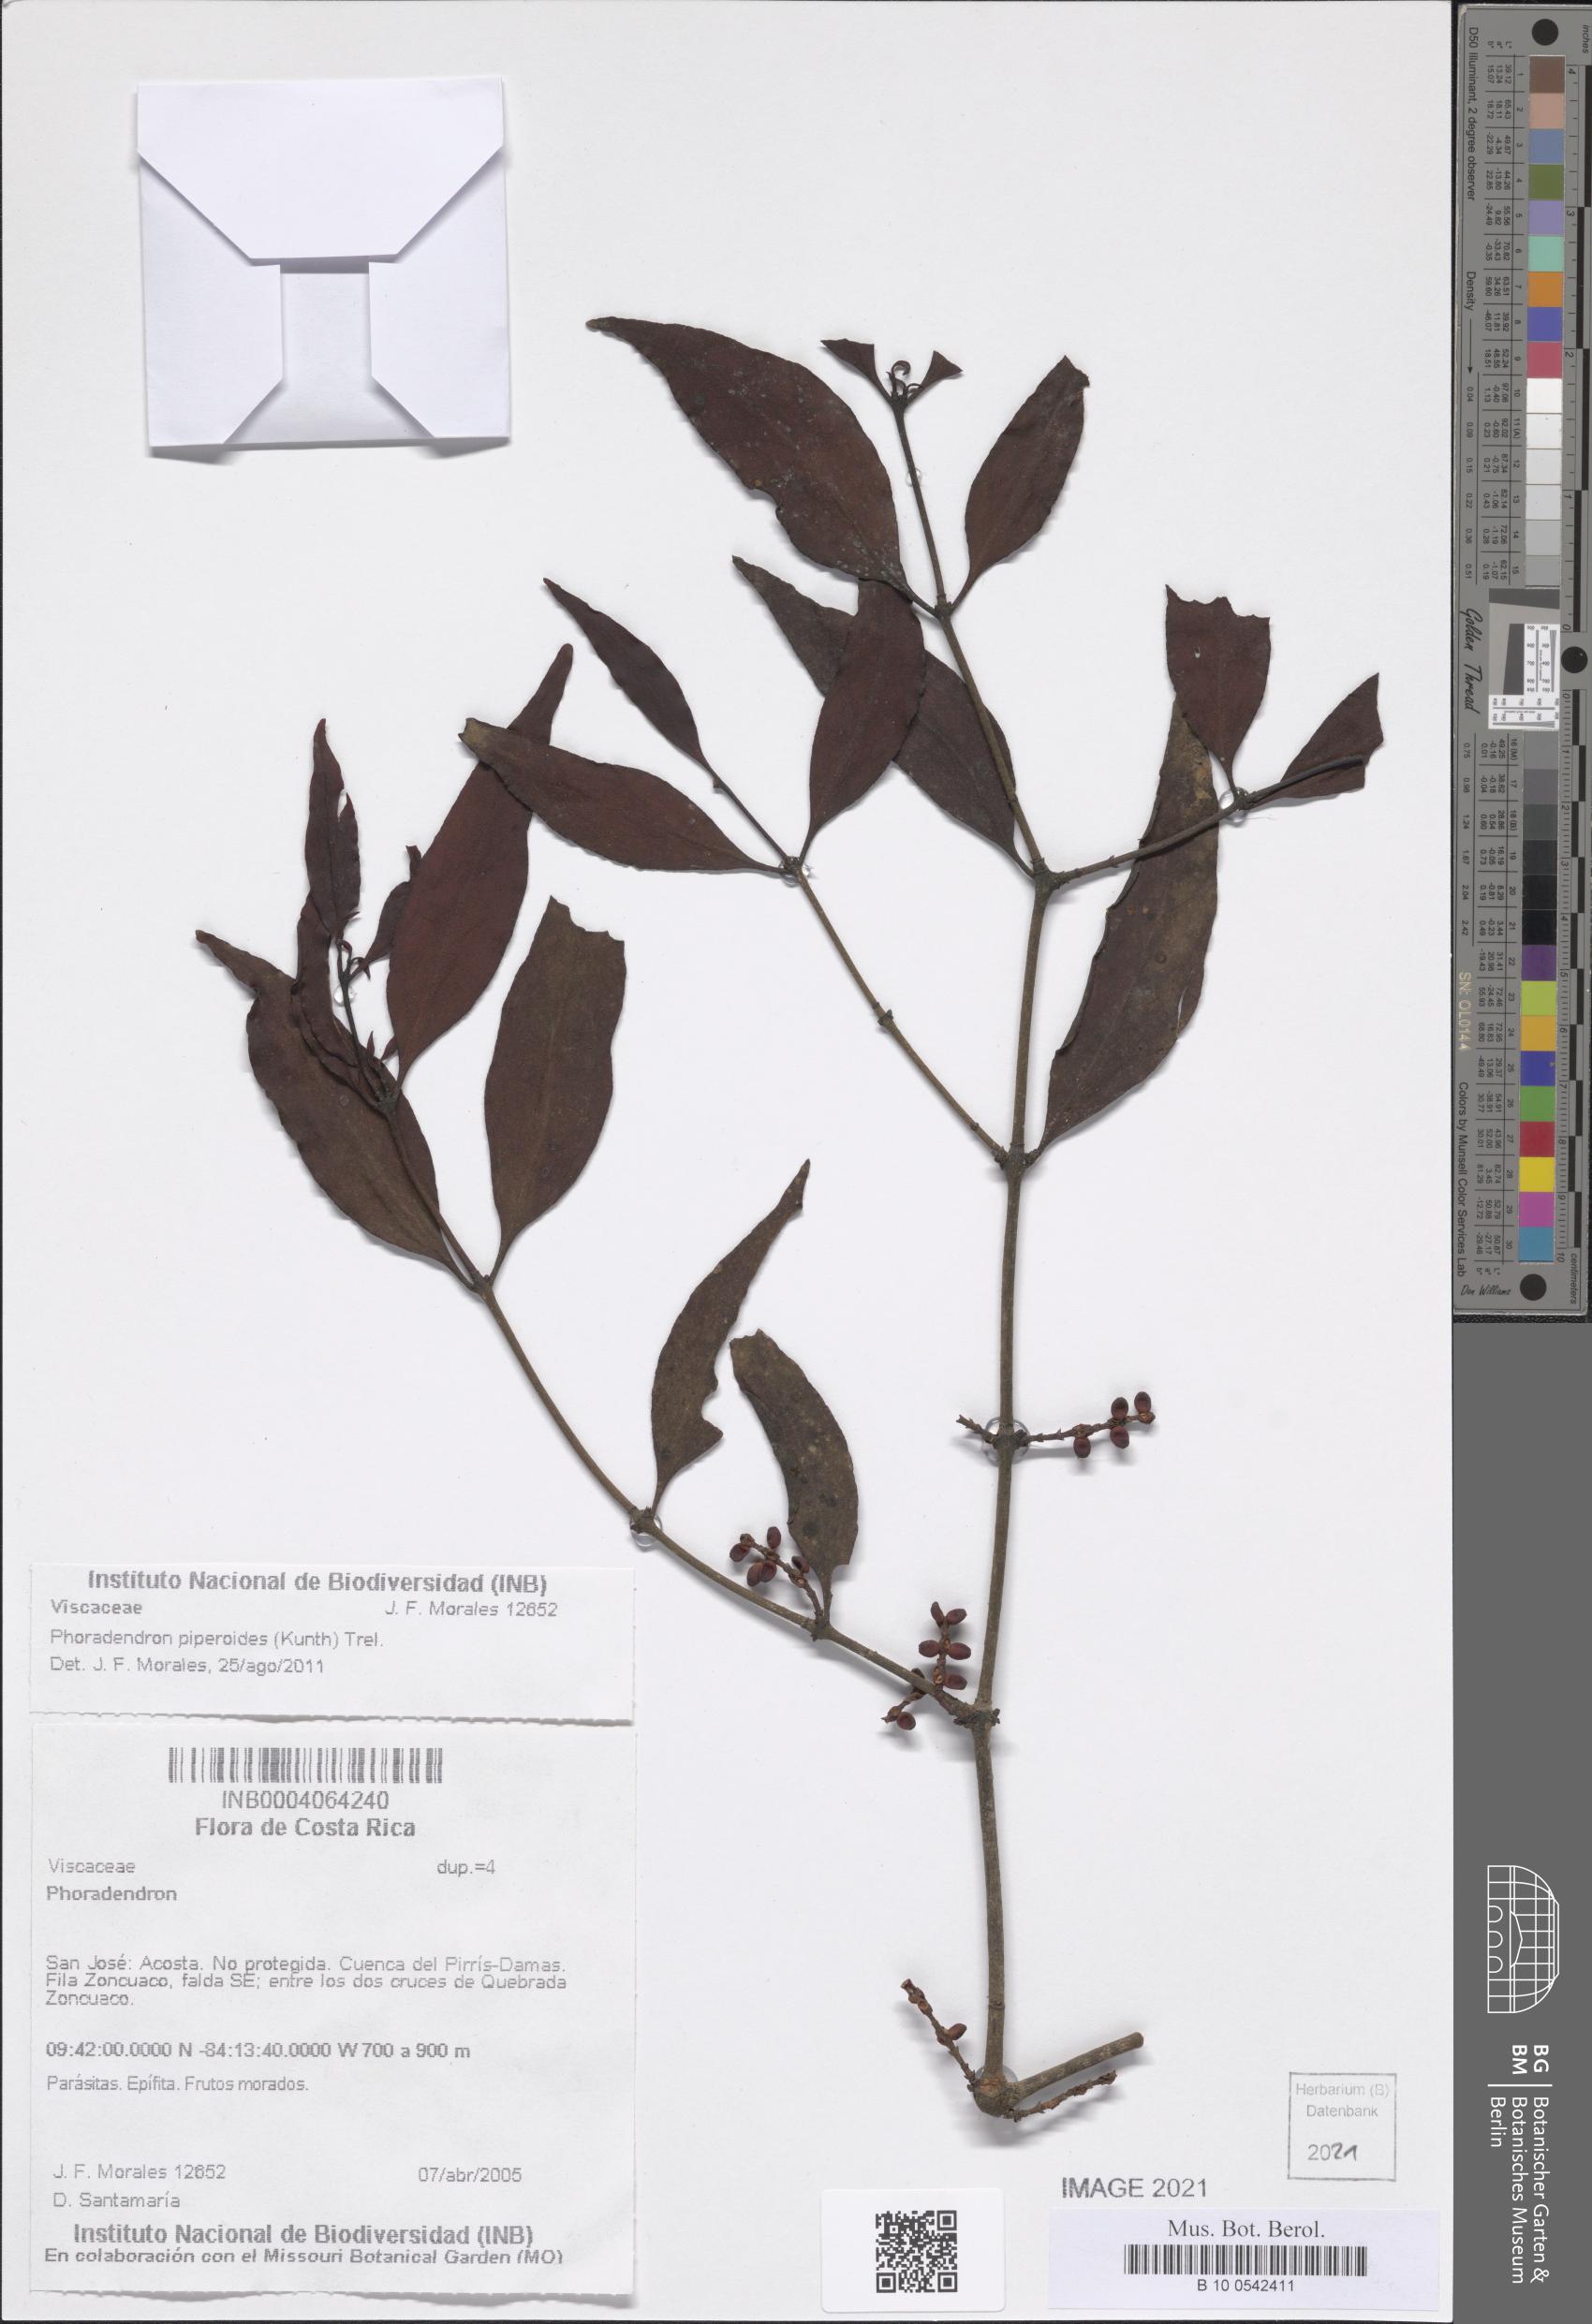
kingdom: Plantae
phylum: Tracheophyta
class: Magnoliopsida
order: Santalales
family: Viscaceae
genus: Phoradendron
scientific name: Phoradendron piperoides
